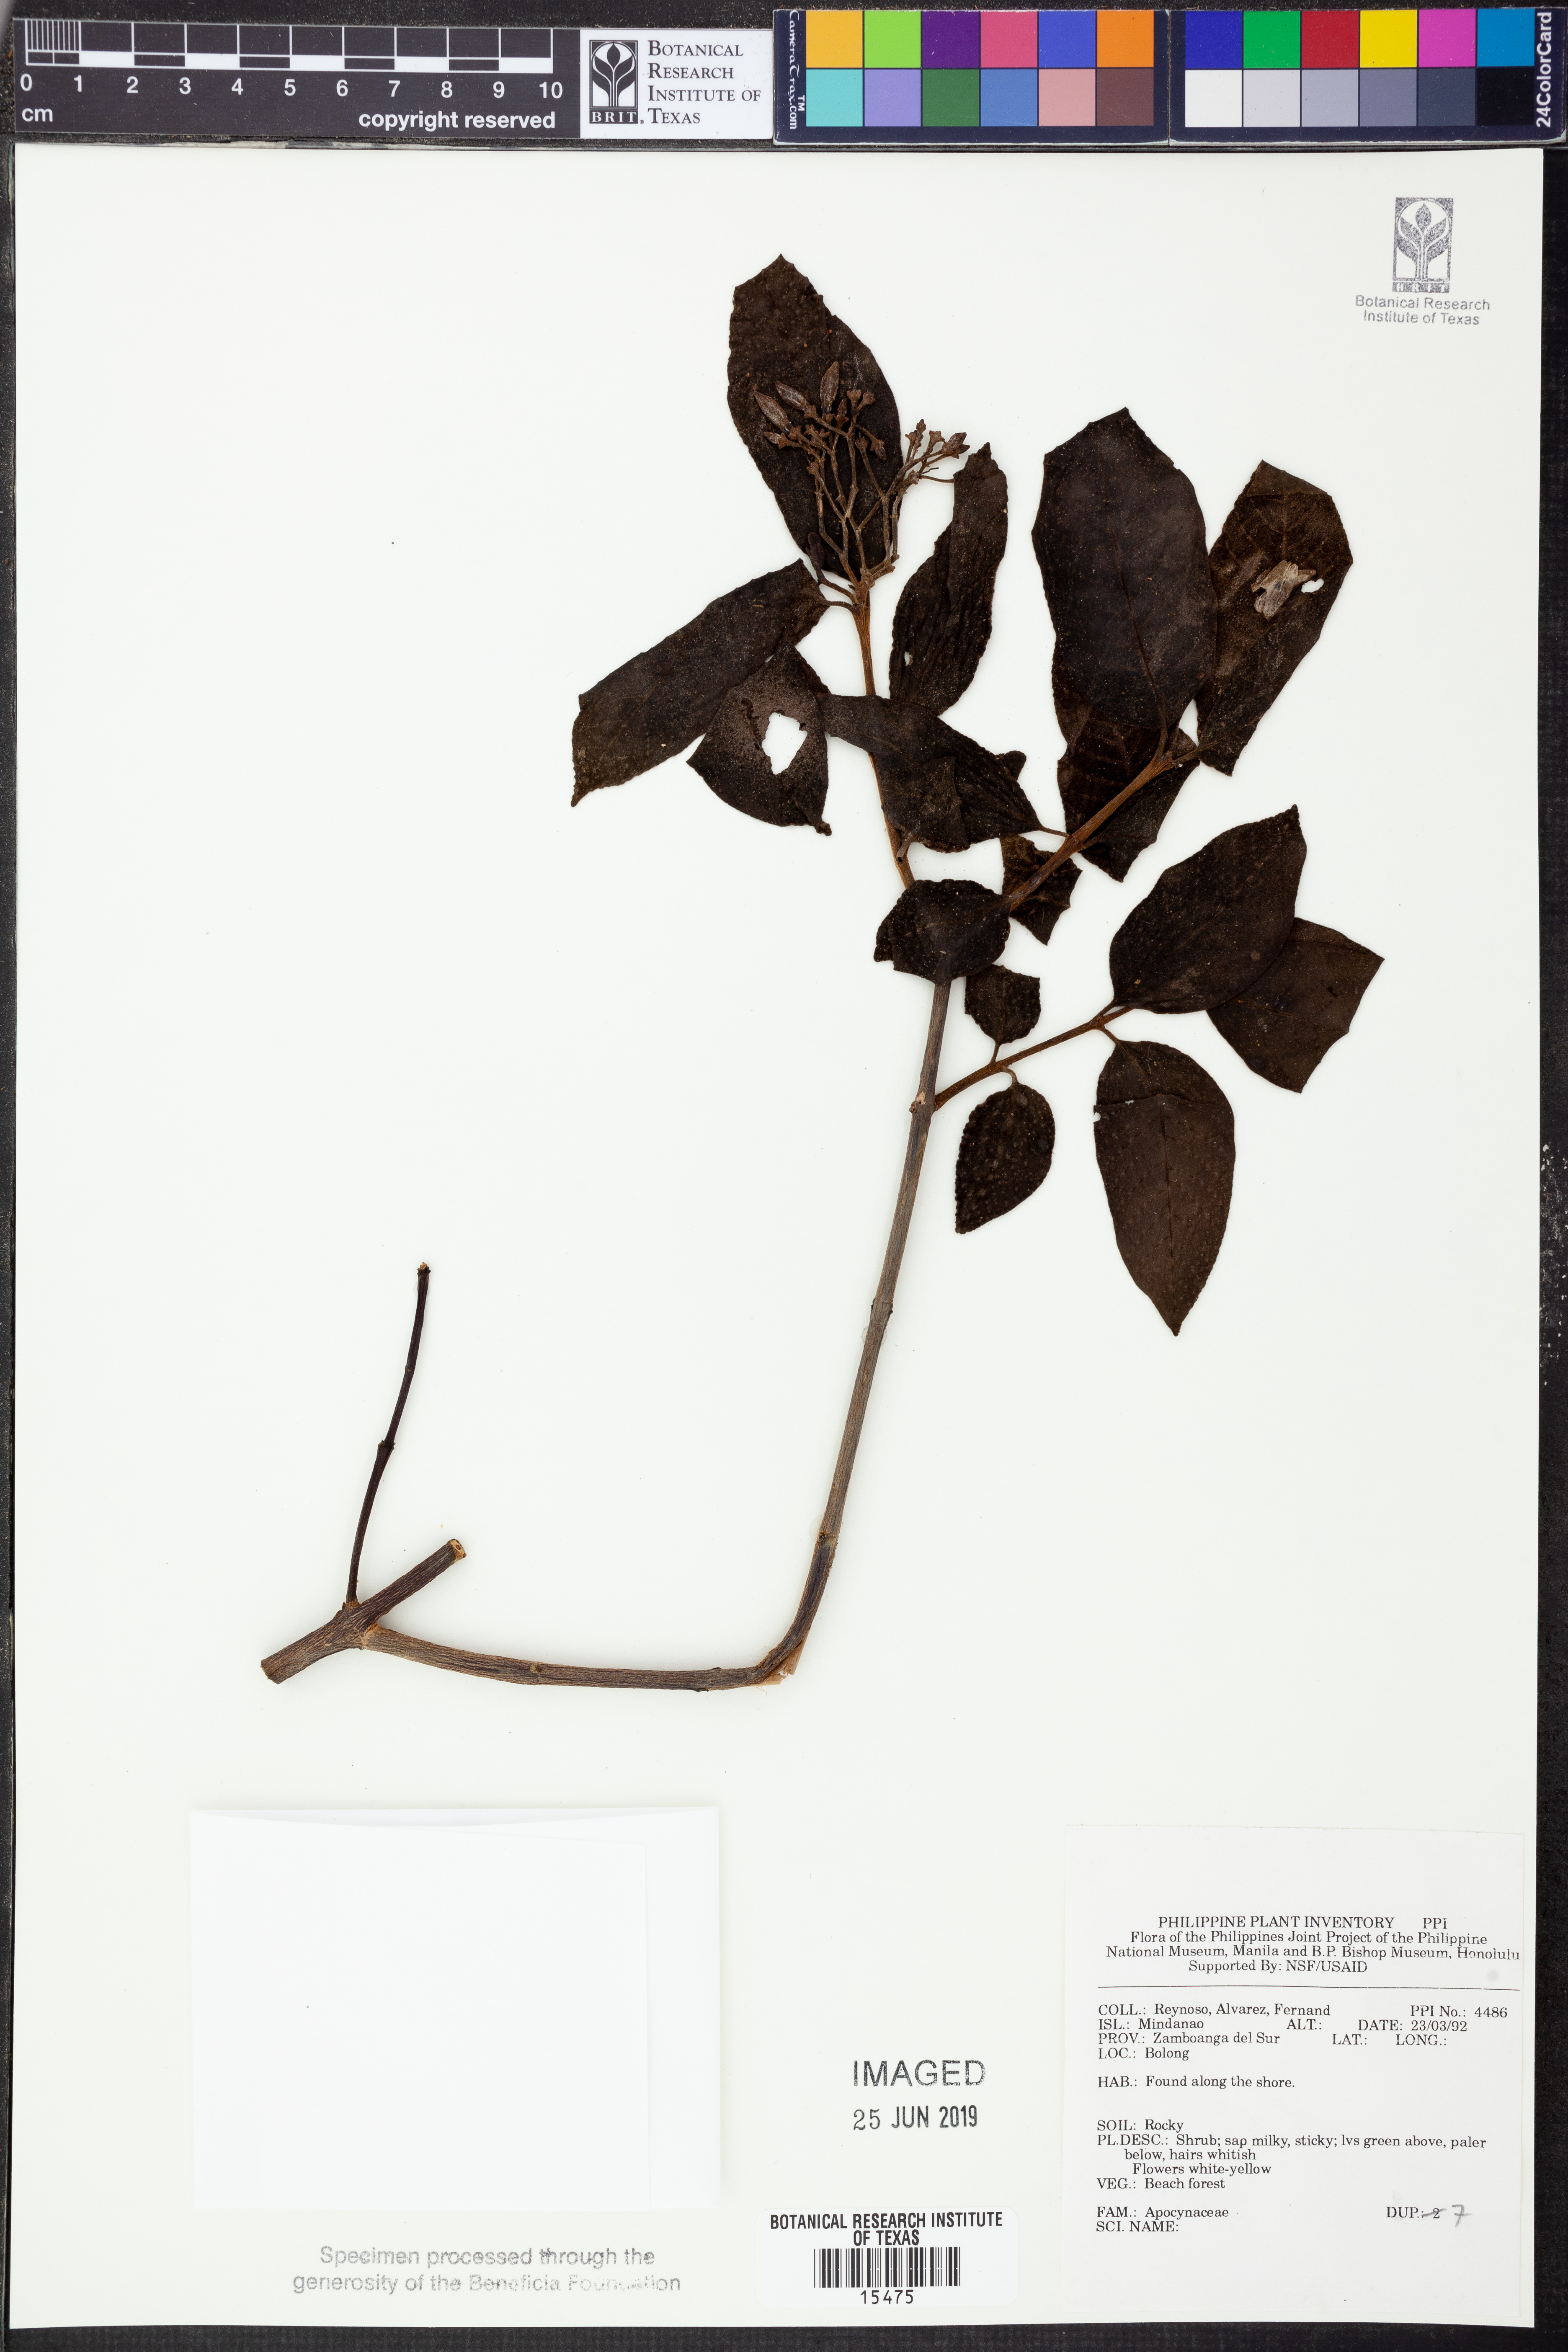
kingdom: Plantae
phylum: Tracheophyta
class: Magnoliopsida
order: Gentianales
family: Apocynaceae
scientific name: Apocynaceae
